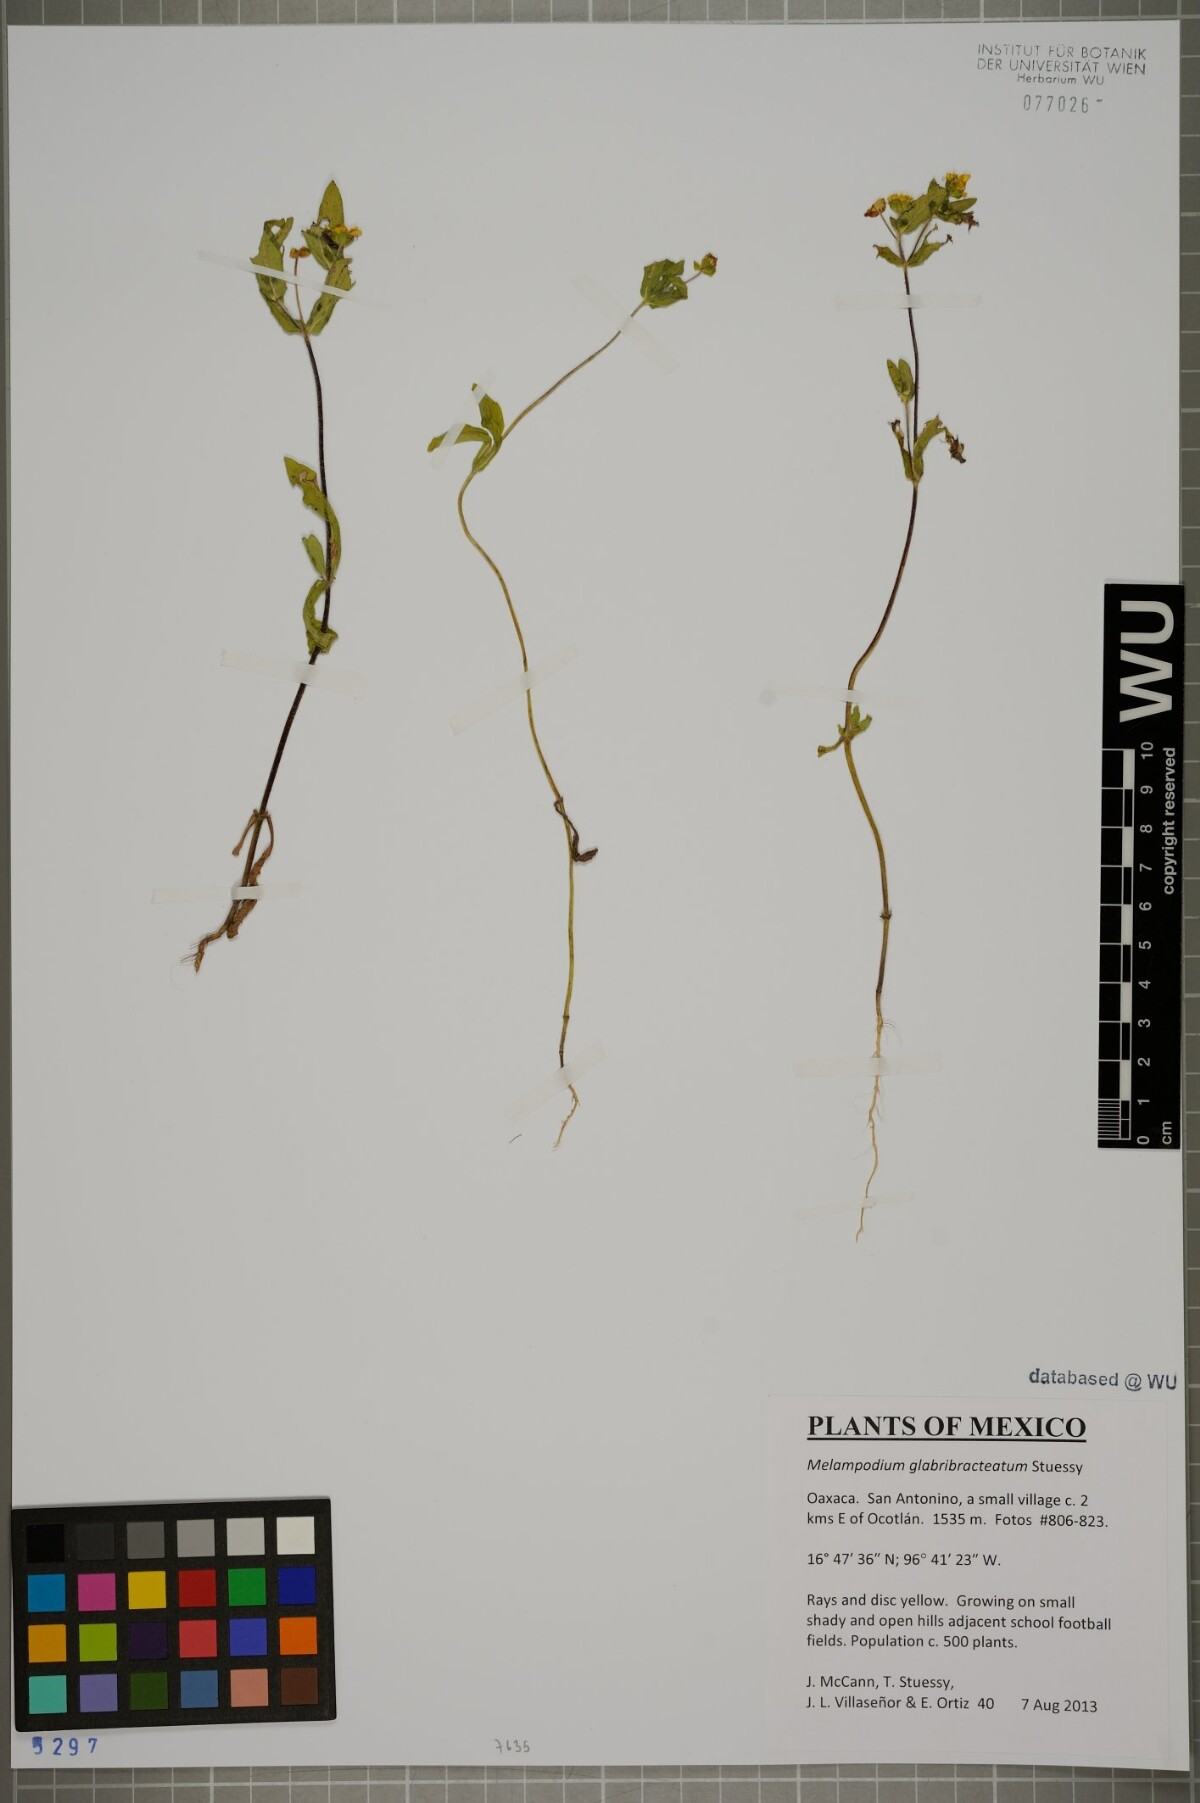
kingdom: Plantae
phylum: Tracheophyta
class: Magnoliopsida
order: Asterales
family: Asteraceae
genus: Melampodium
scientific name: Melampodium glabribracteatum
